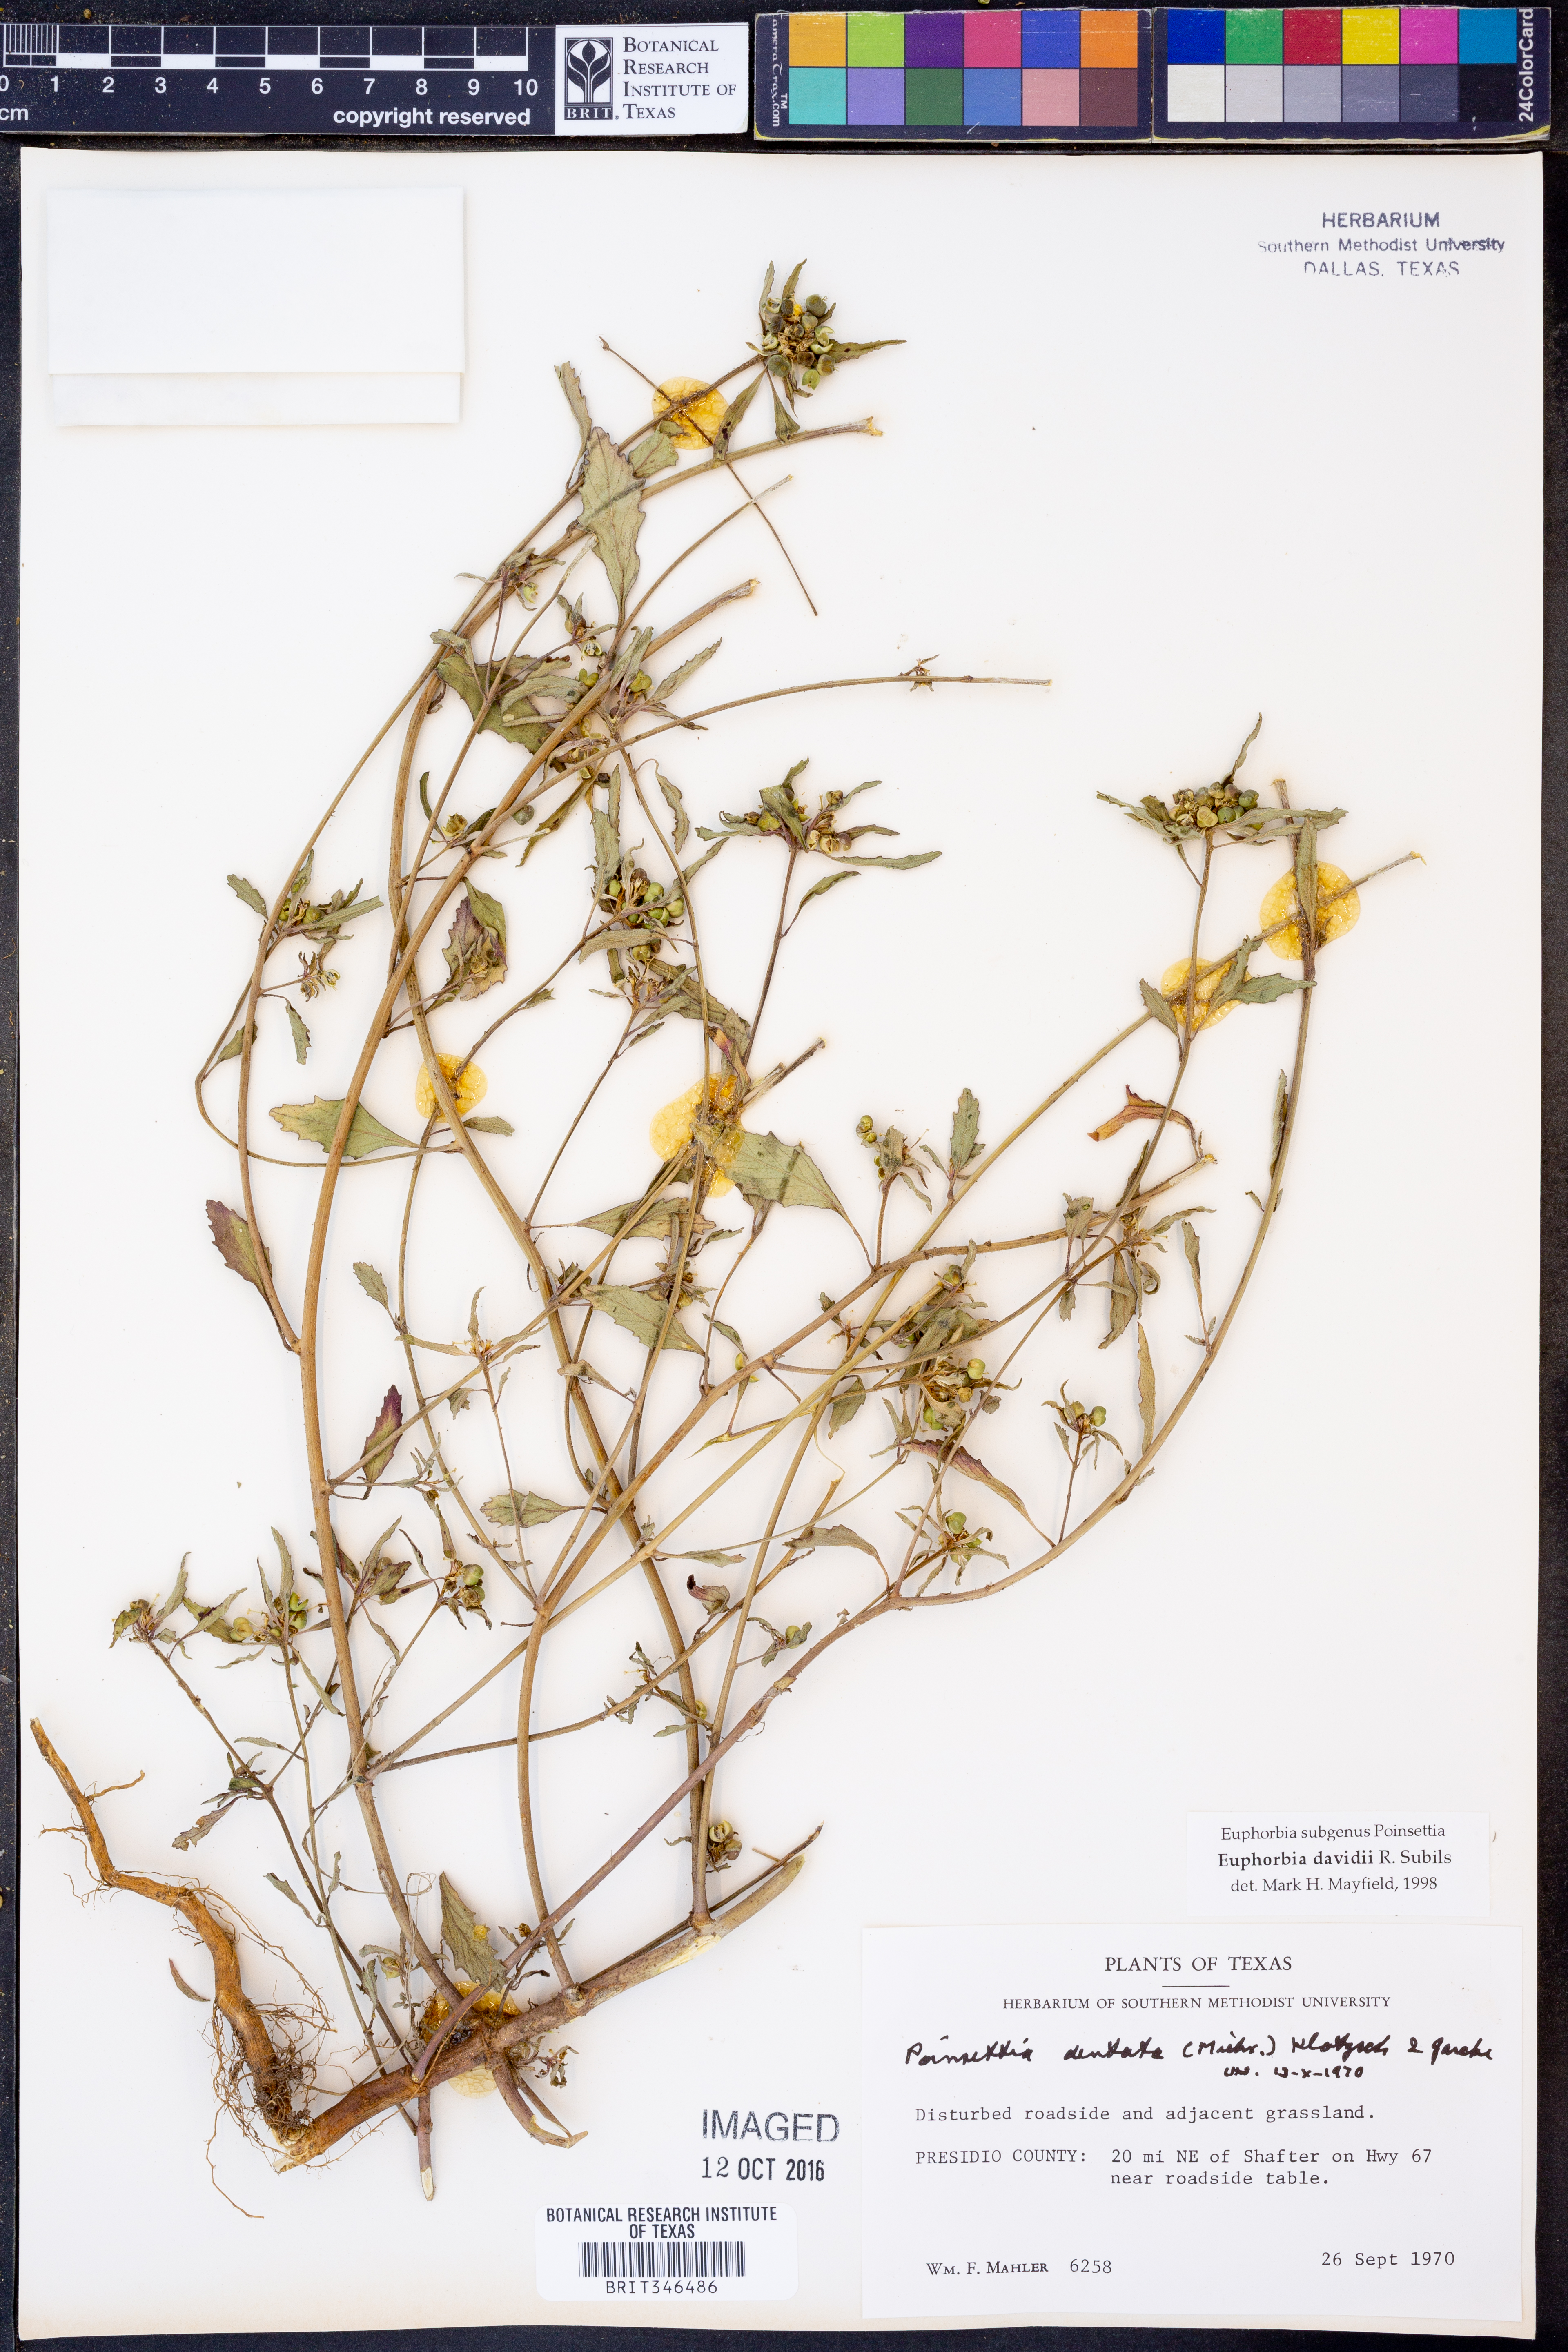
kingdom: Plantae
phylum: Tracheophyta
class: Magnoliopsida
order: Malpighiales
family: Euphorbiaceae
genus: Euphorbia
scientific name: Euphorbia davidii
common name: David's spurge
